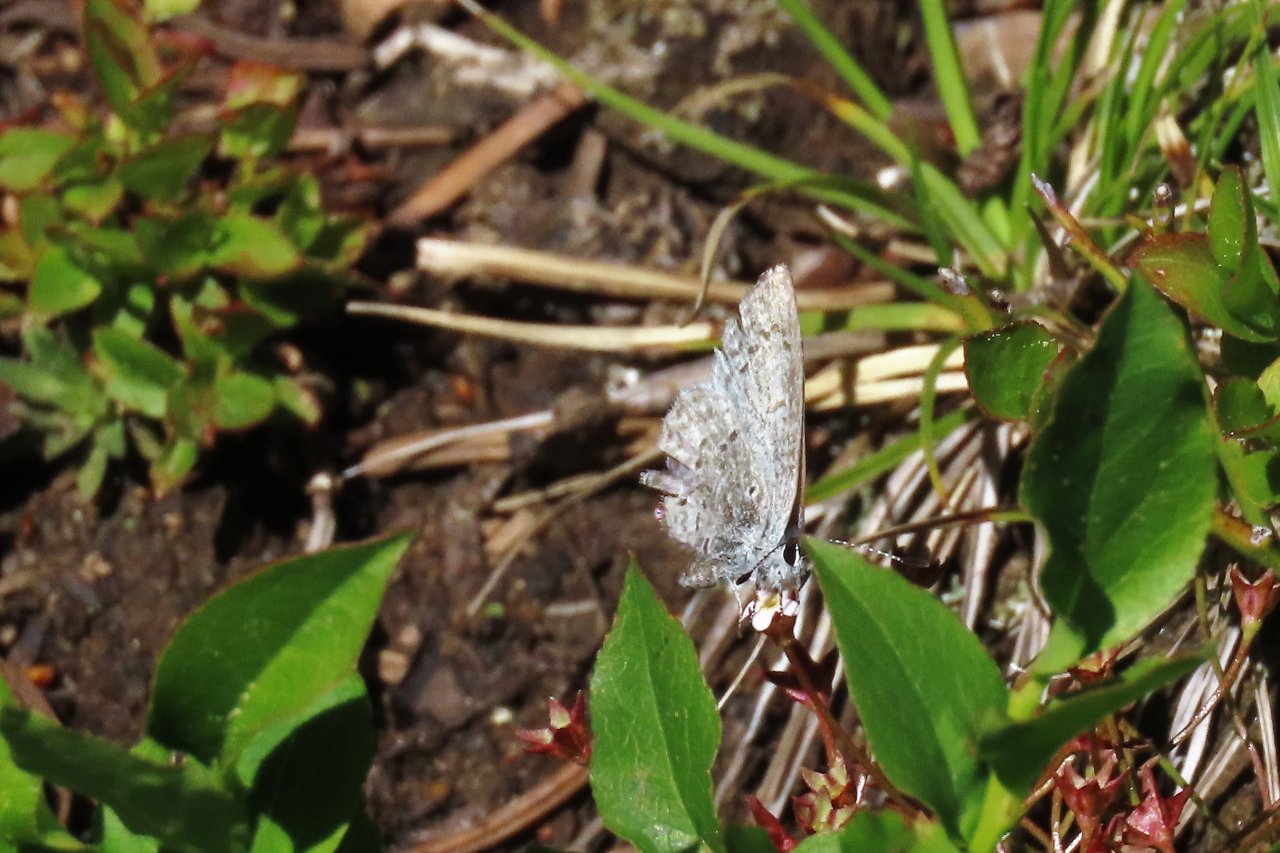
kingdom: Animalia
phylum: Arthropoda
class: Insecta
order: Lepidoptera
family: Lycaenidae
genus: Celastrina
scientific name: Celastrina ladon
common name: Echo Azure
